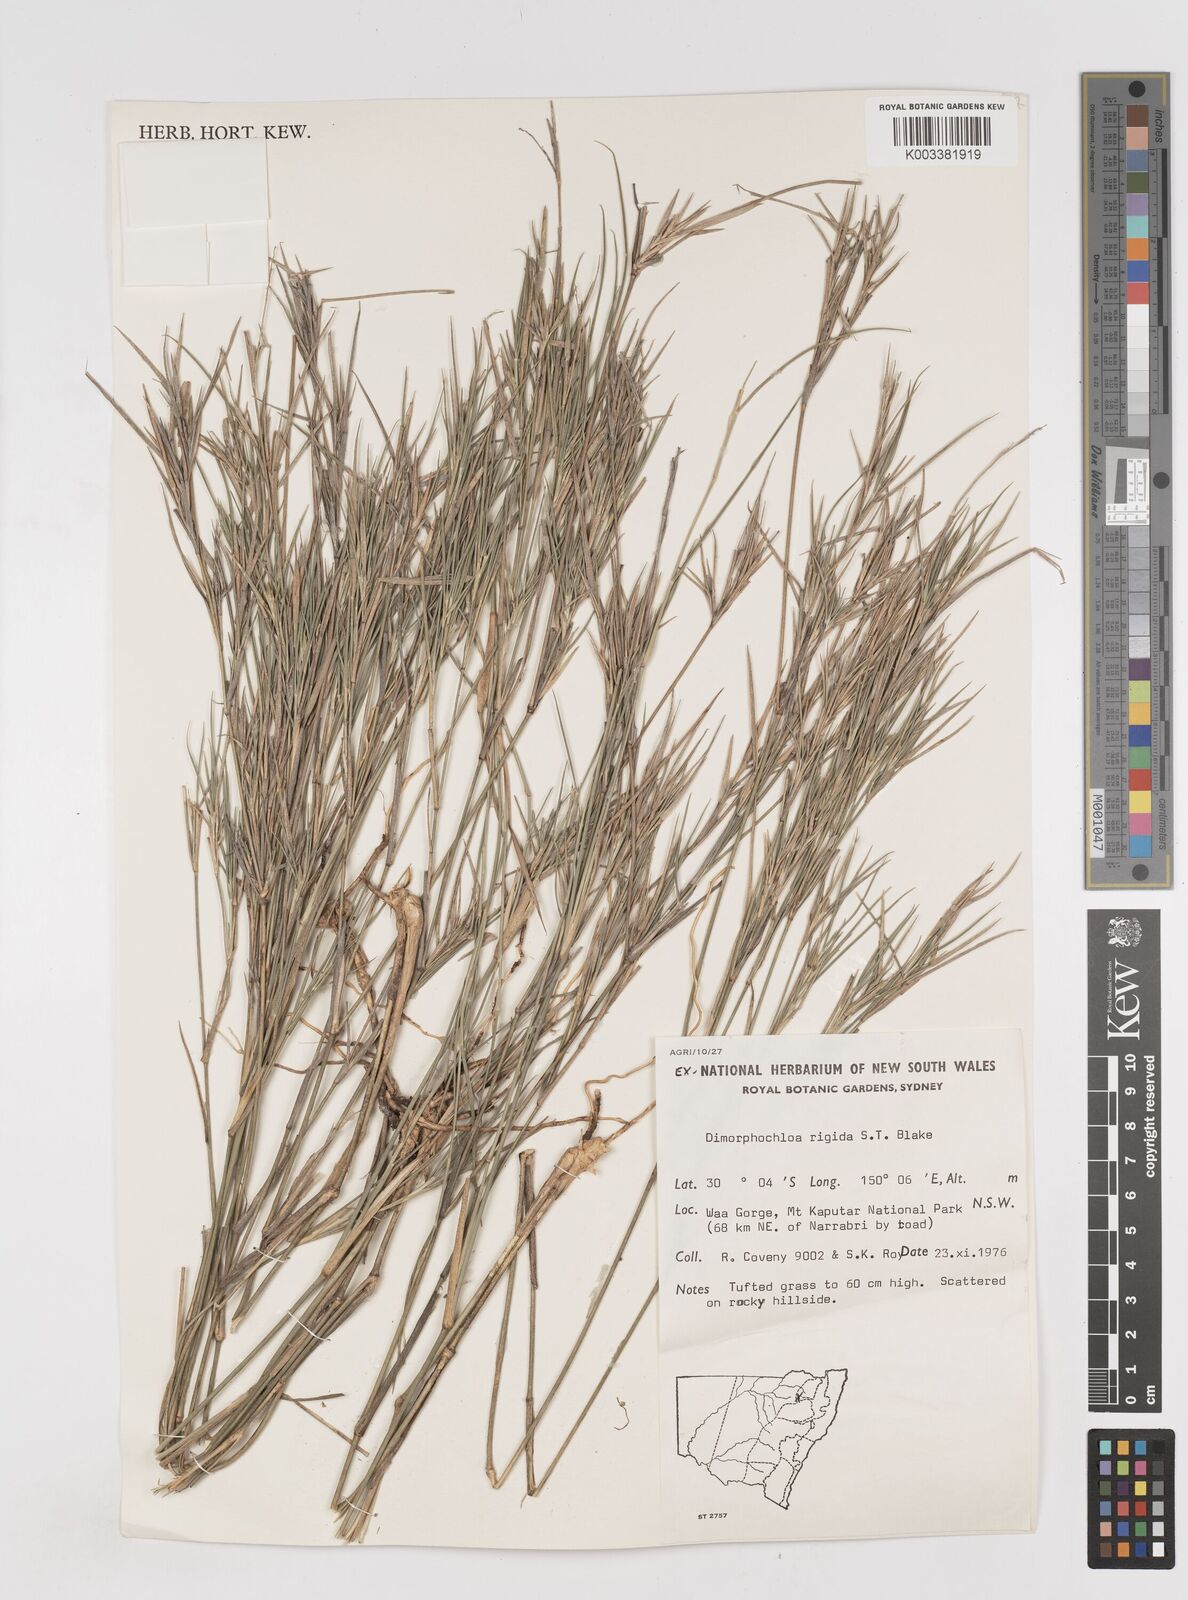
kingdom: Plantae
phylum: Tracheophyta
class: Liliopsida
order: Poales
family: Poaceae
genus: Dimorphochloa
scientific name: Dimorphochloa rigida
